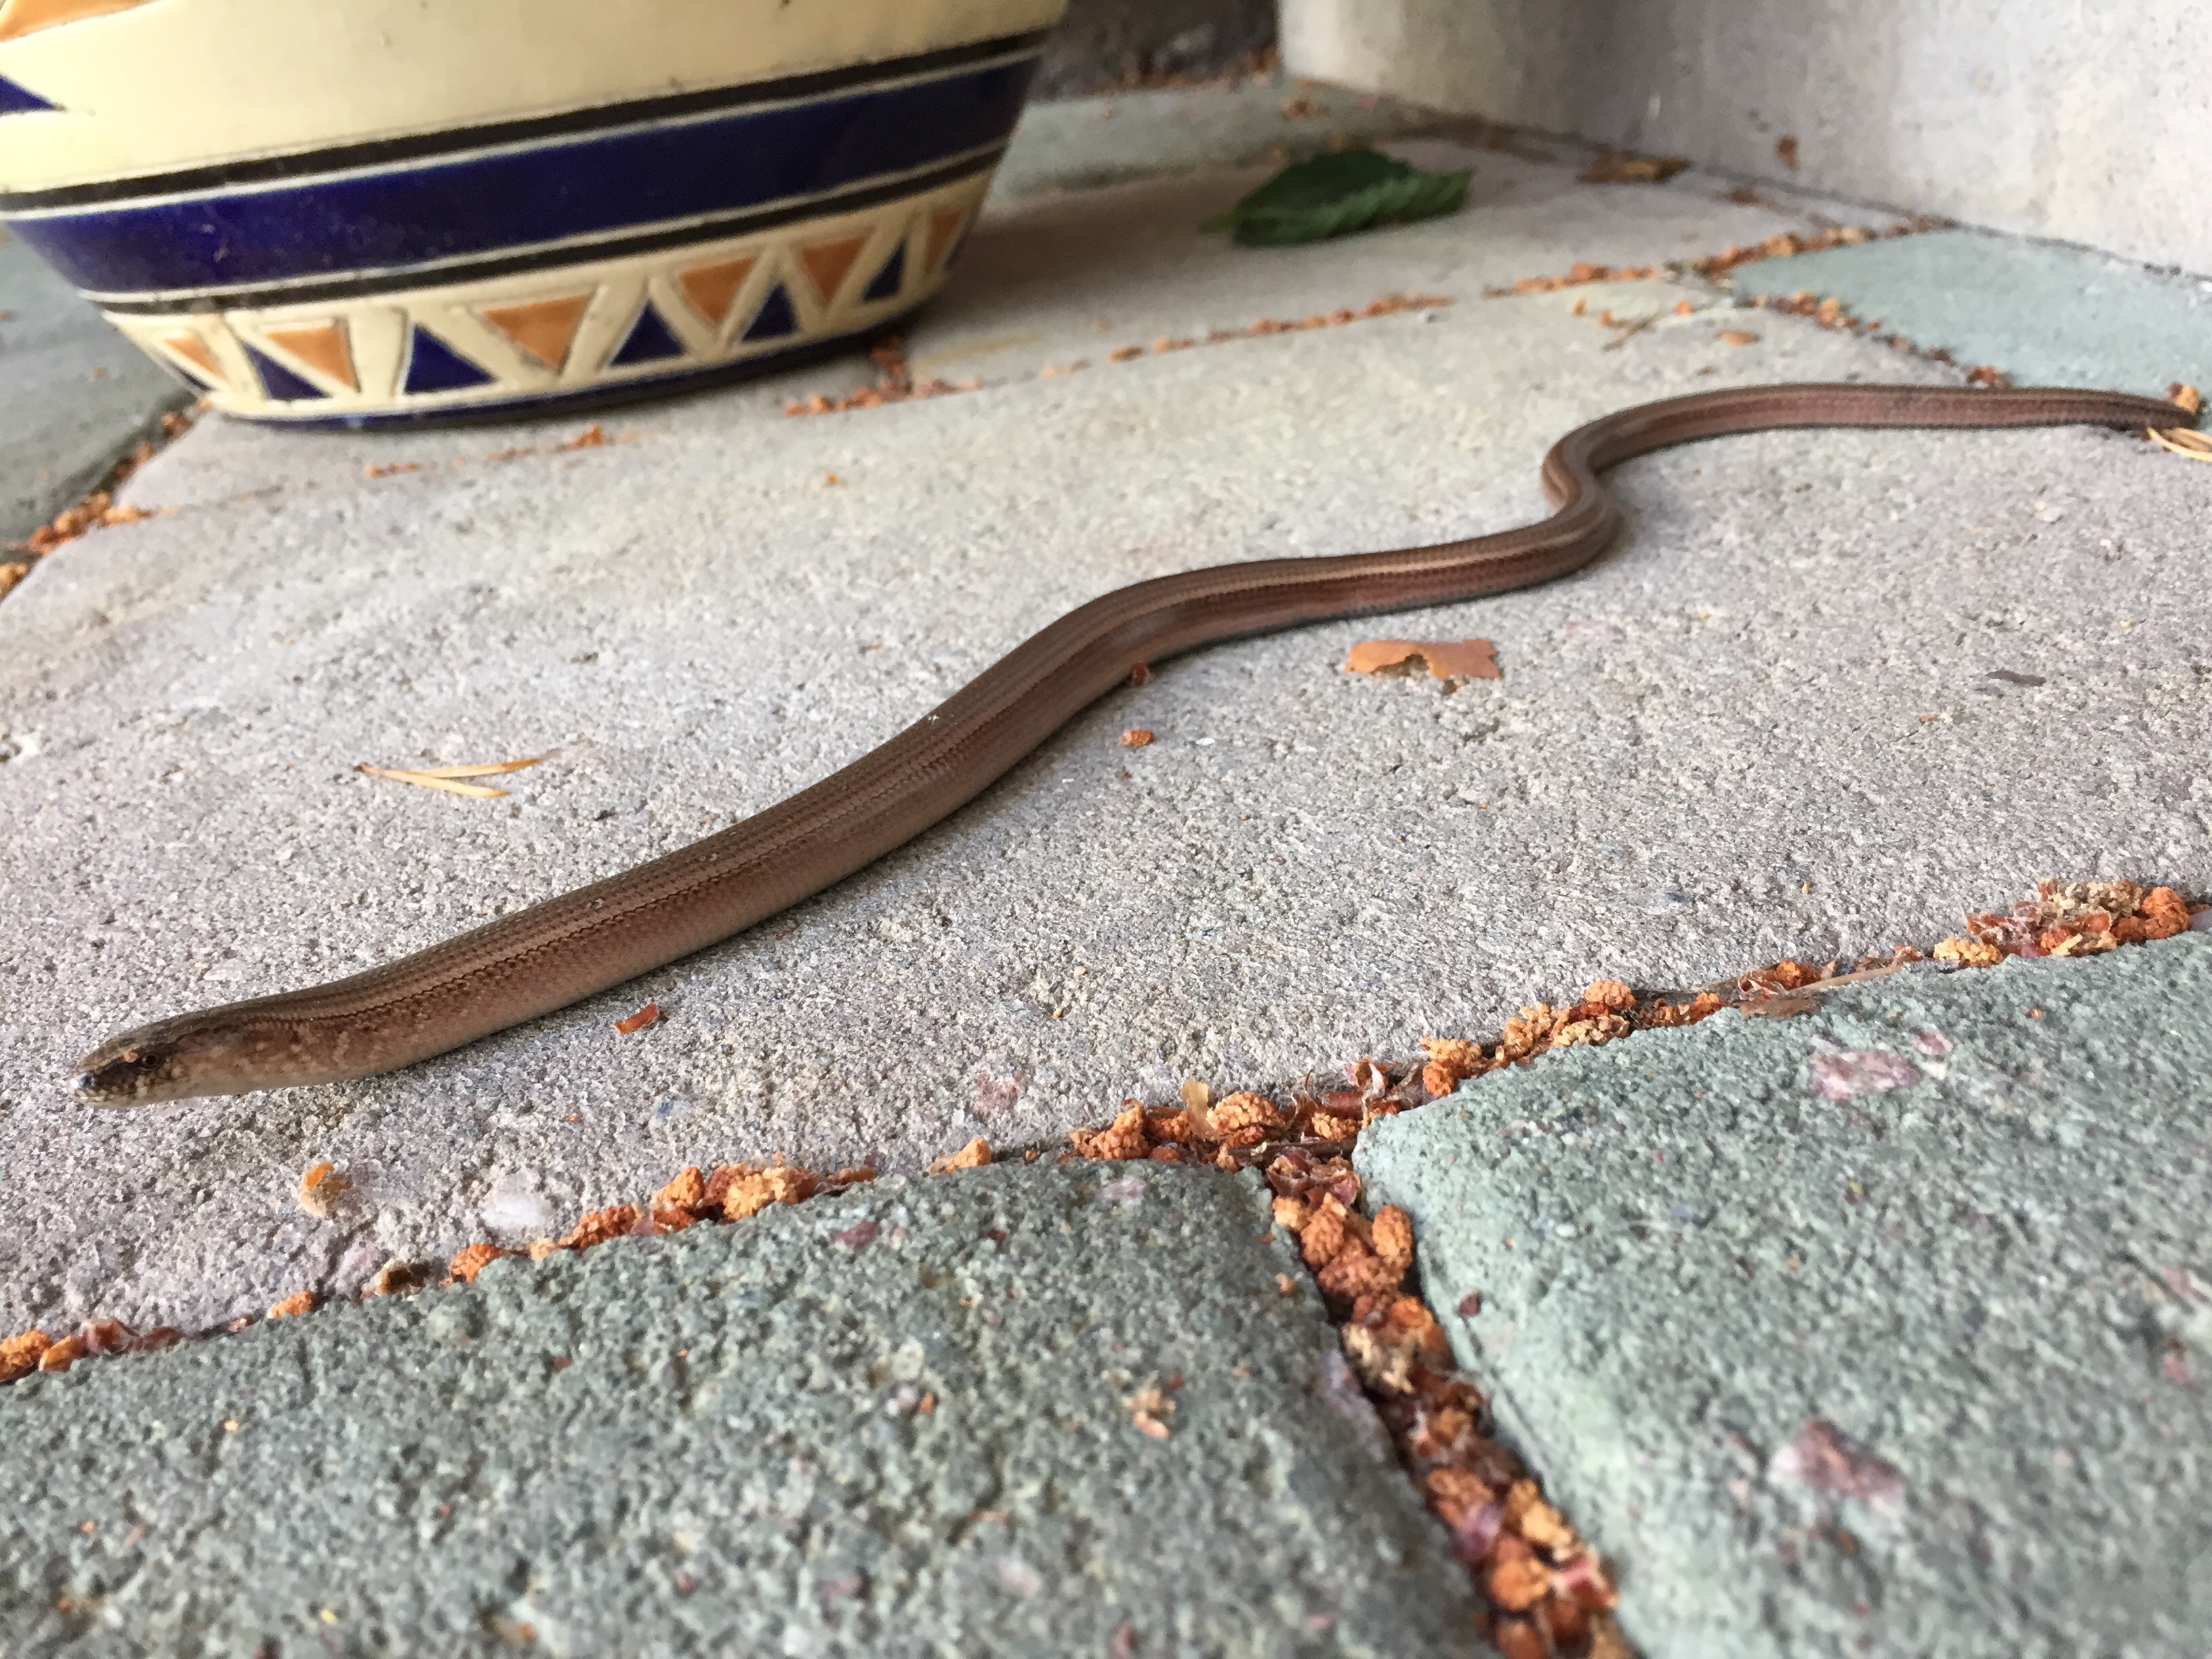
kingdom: Animalia
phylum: Chordata
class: Squamata
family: Anguidae
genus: Anguis
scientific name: Anguis colchica
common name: Slow worm
